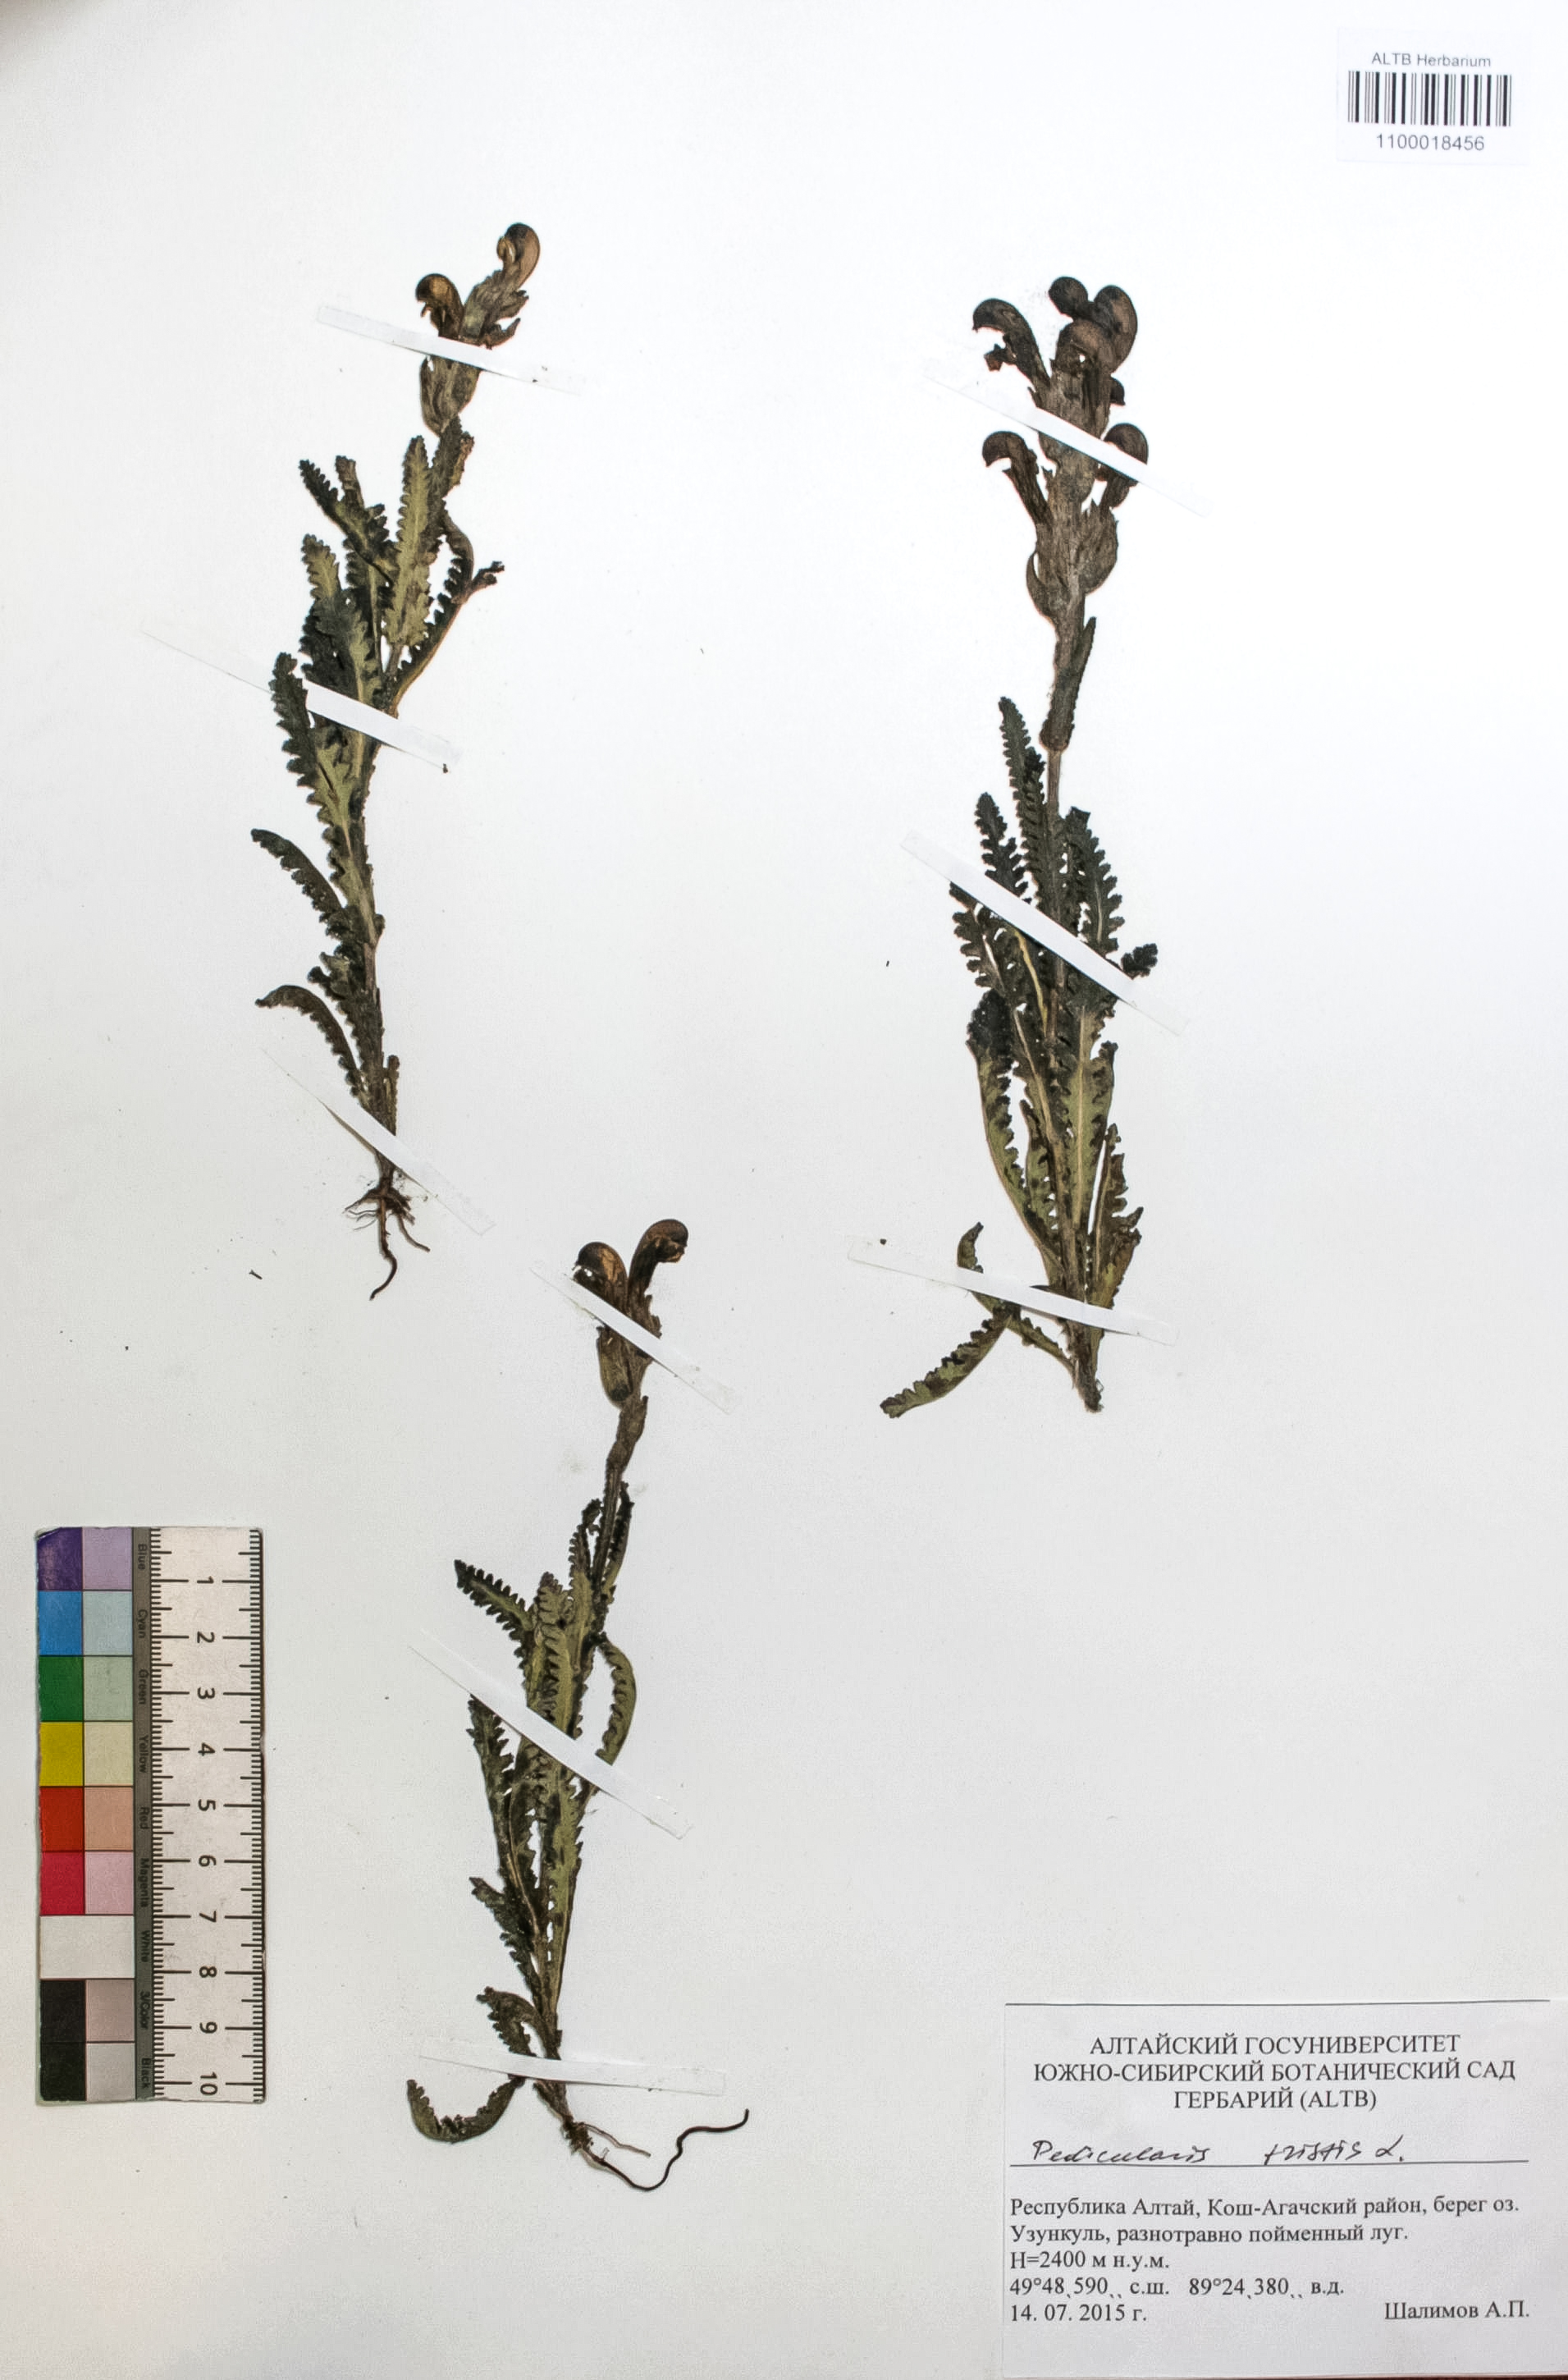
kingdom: Plantae
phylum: Tracheophyta
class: Magnoliopsida
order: Lamiales
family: Orobanchaceae
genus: Pedicularis
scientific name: Pedicularis tristis
